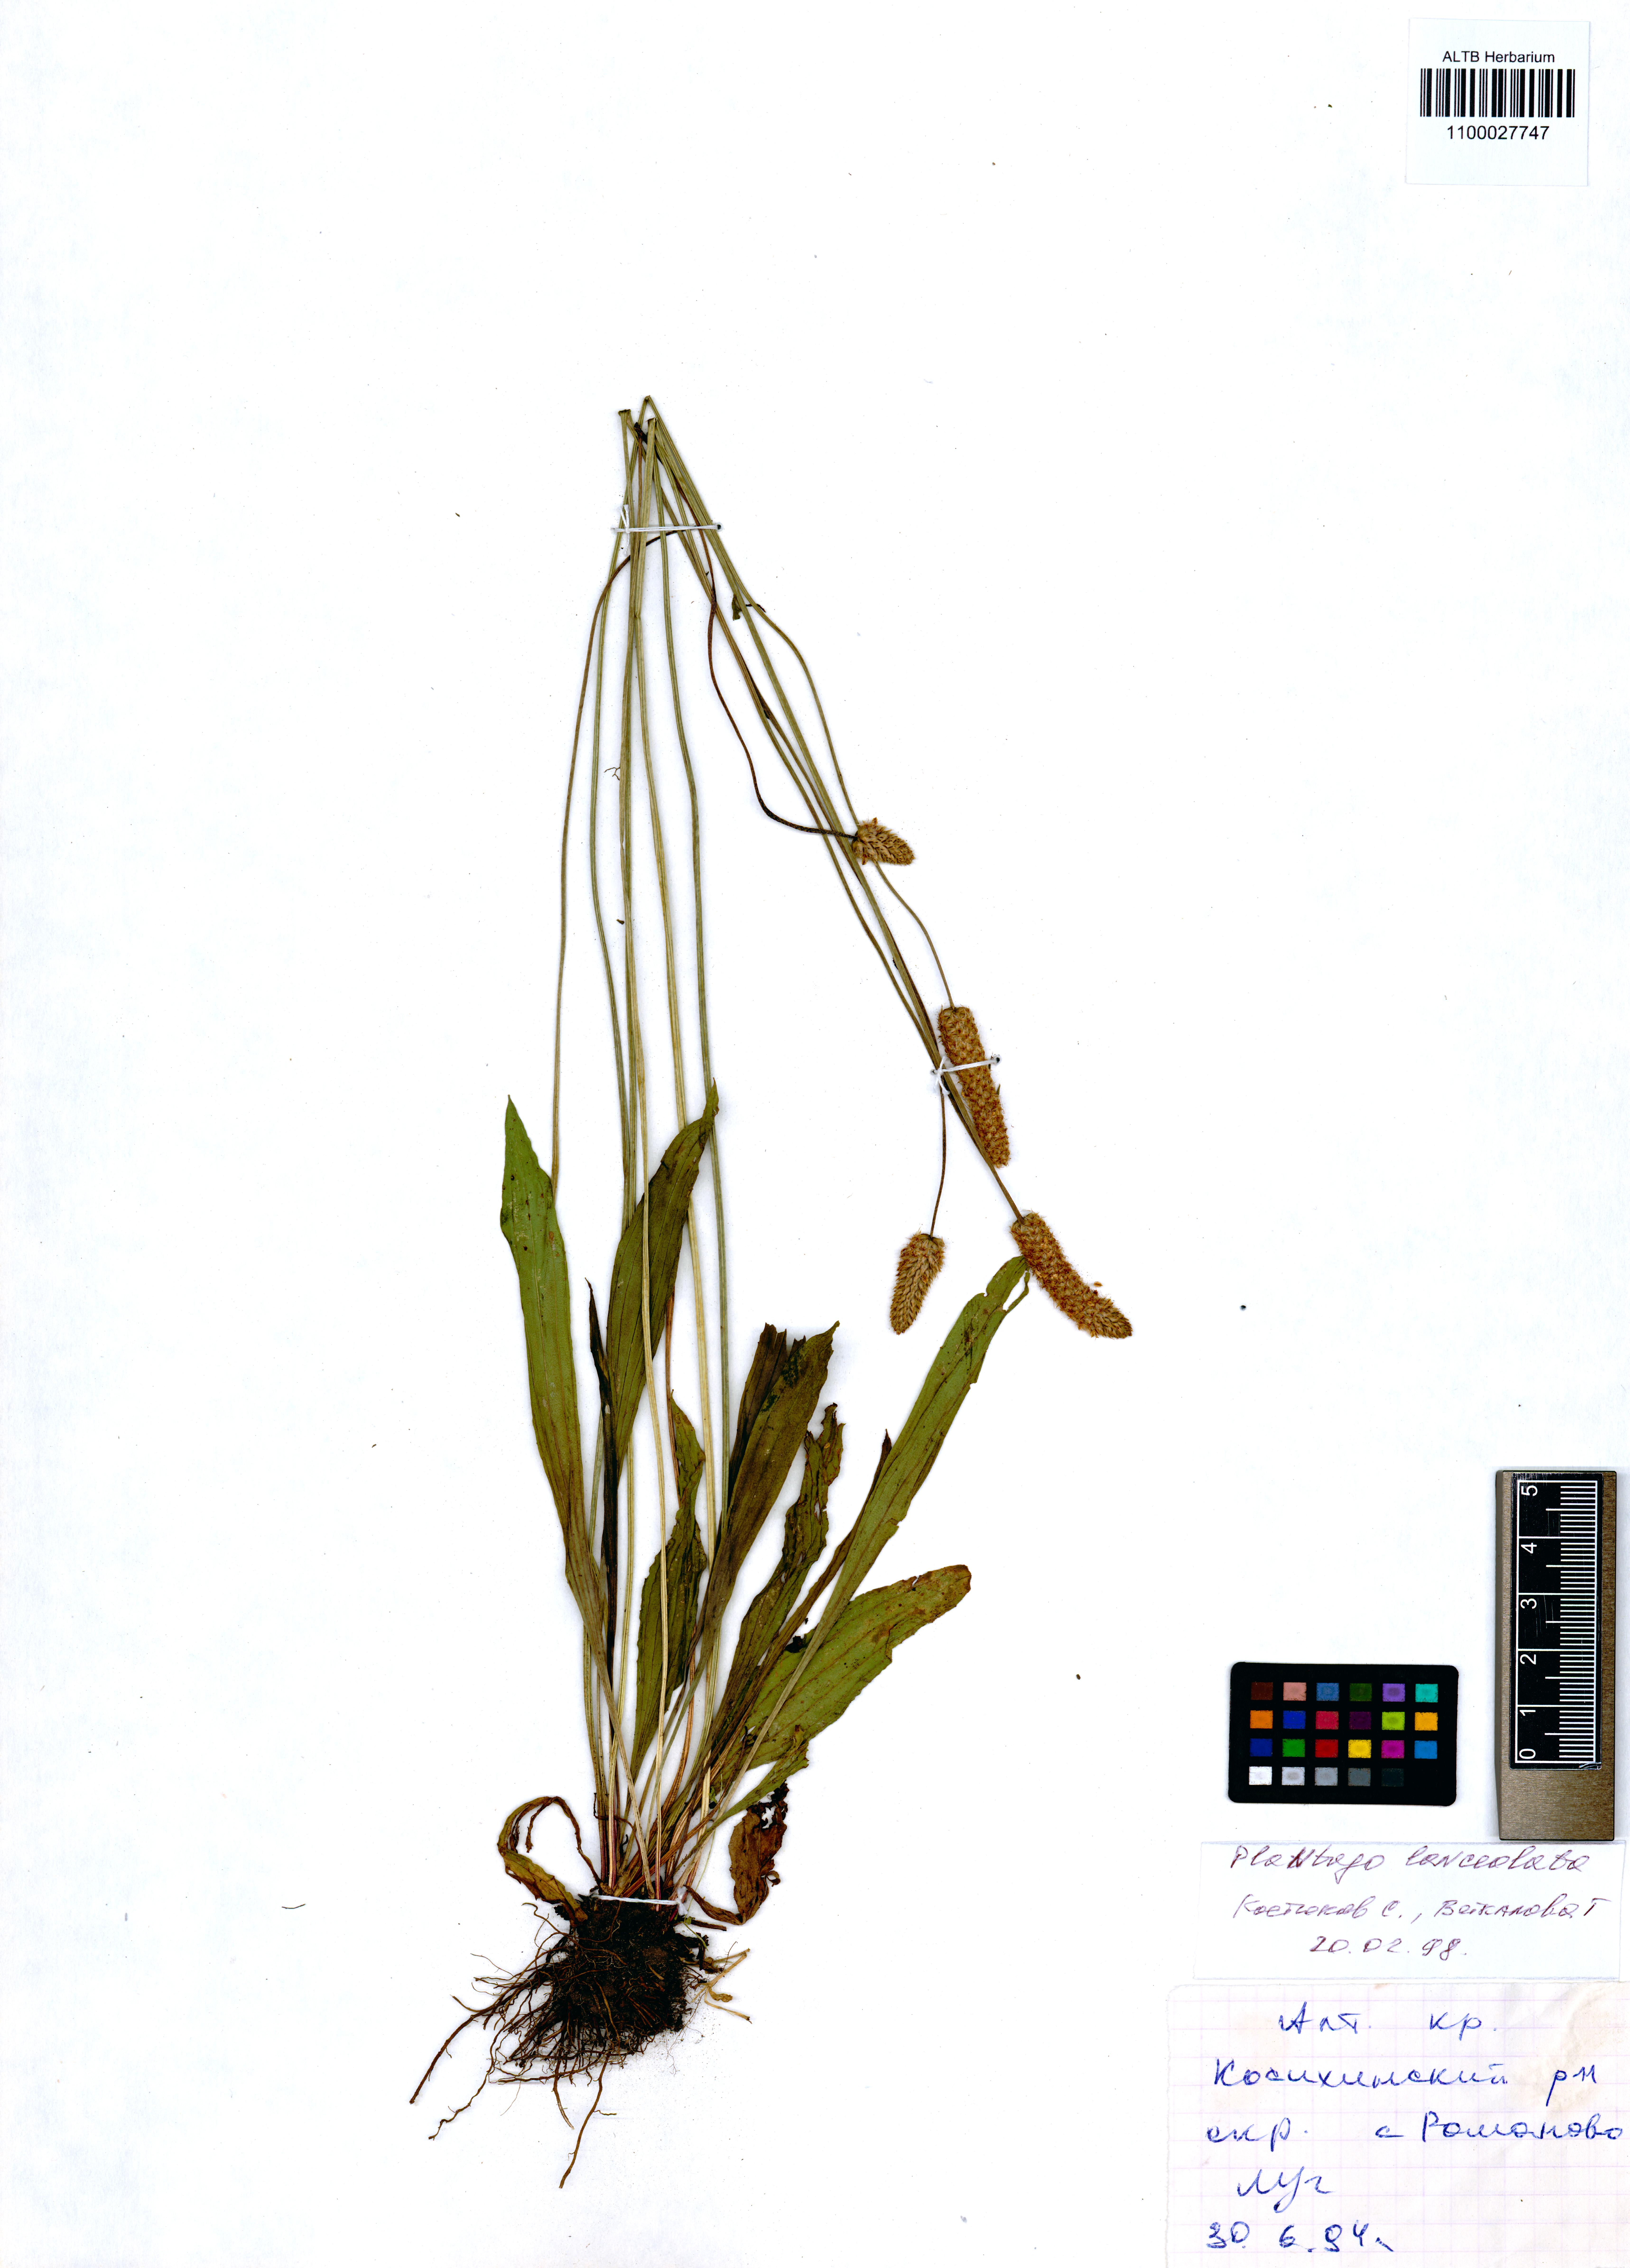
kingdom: Plantae
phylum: Tracheophyta
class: Magnoliopsida
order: Lamiales
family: Plantaginaceae
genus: Plantago
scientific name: Plantago lanceolata
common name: Ribwort plantain
